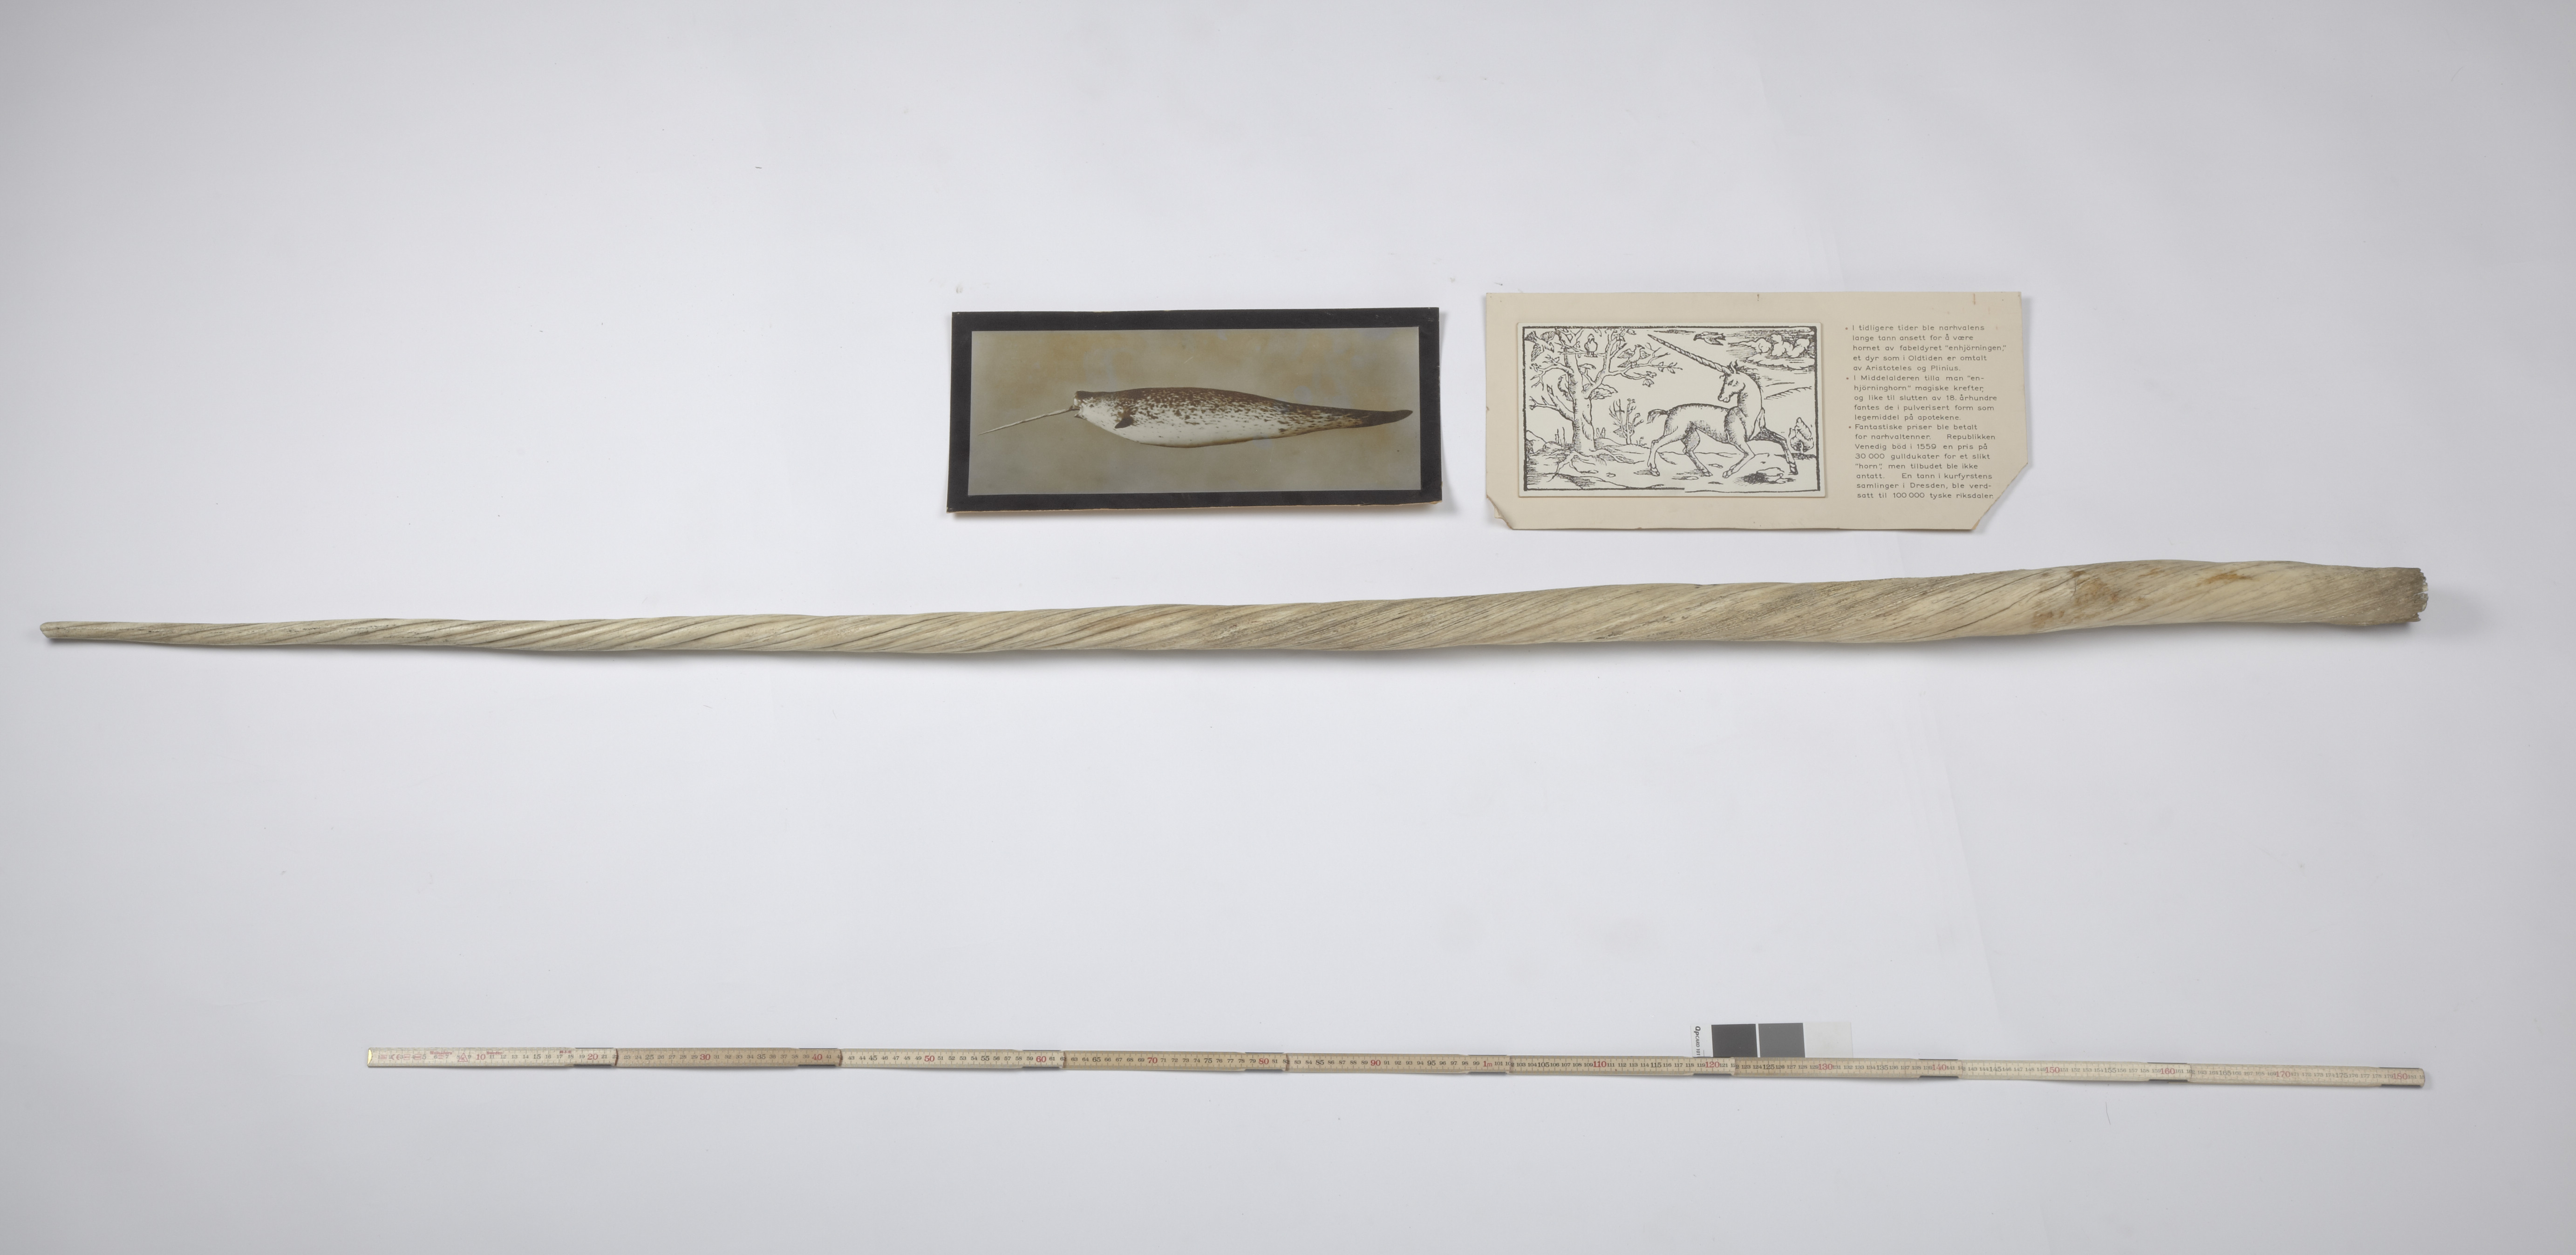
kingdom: Animalia
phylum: Chordata
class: Mammalia
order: Cetacea
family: Monodontidae
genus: Monodon
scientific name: Monodon monoceros
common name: Narwhal
